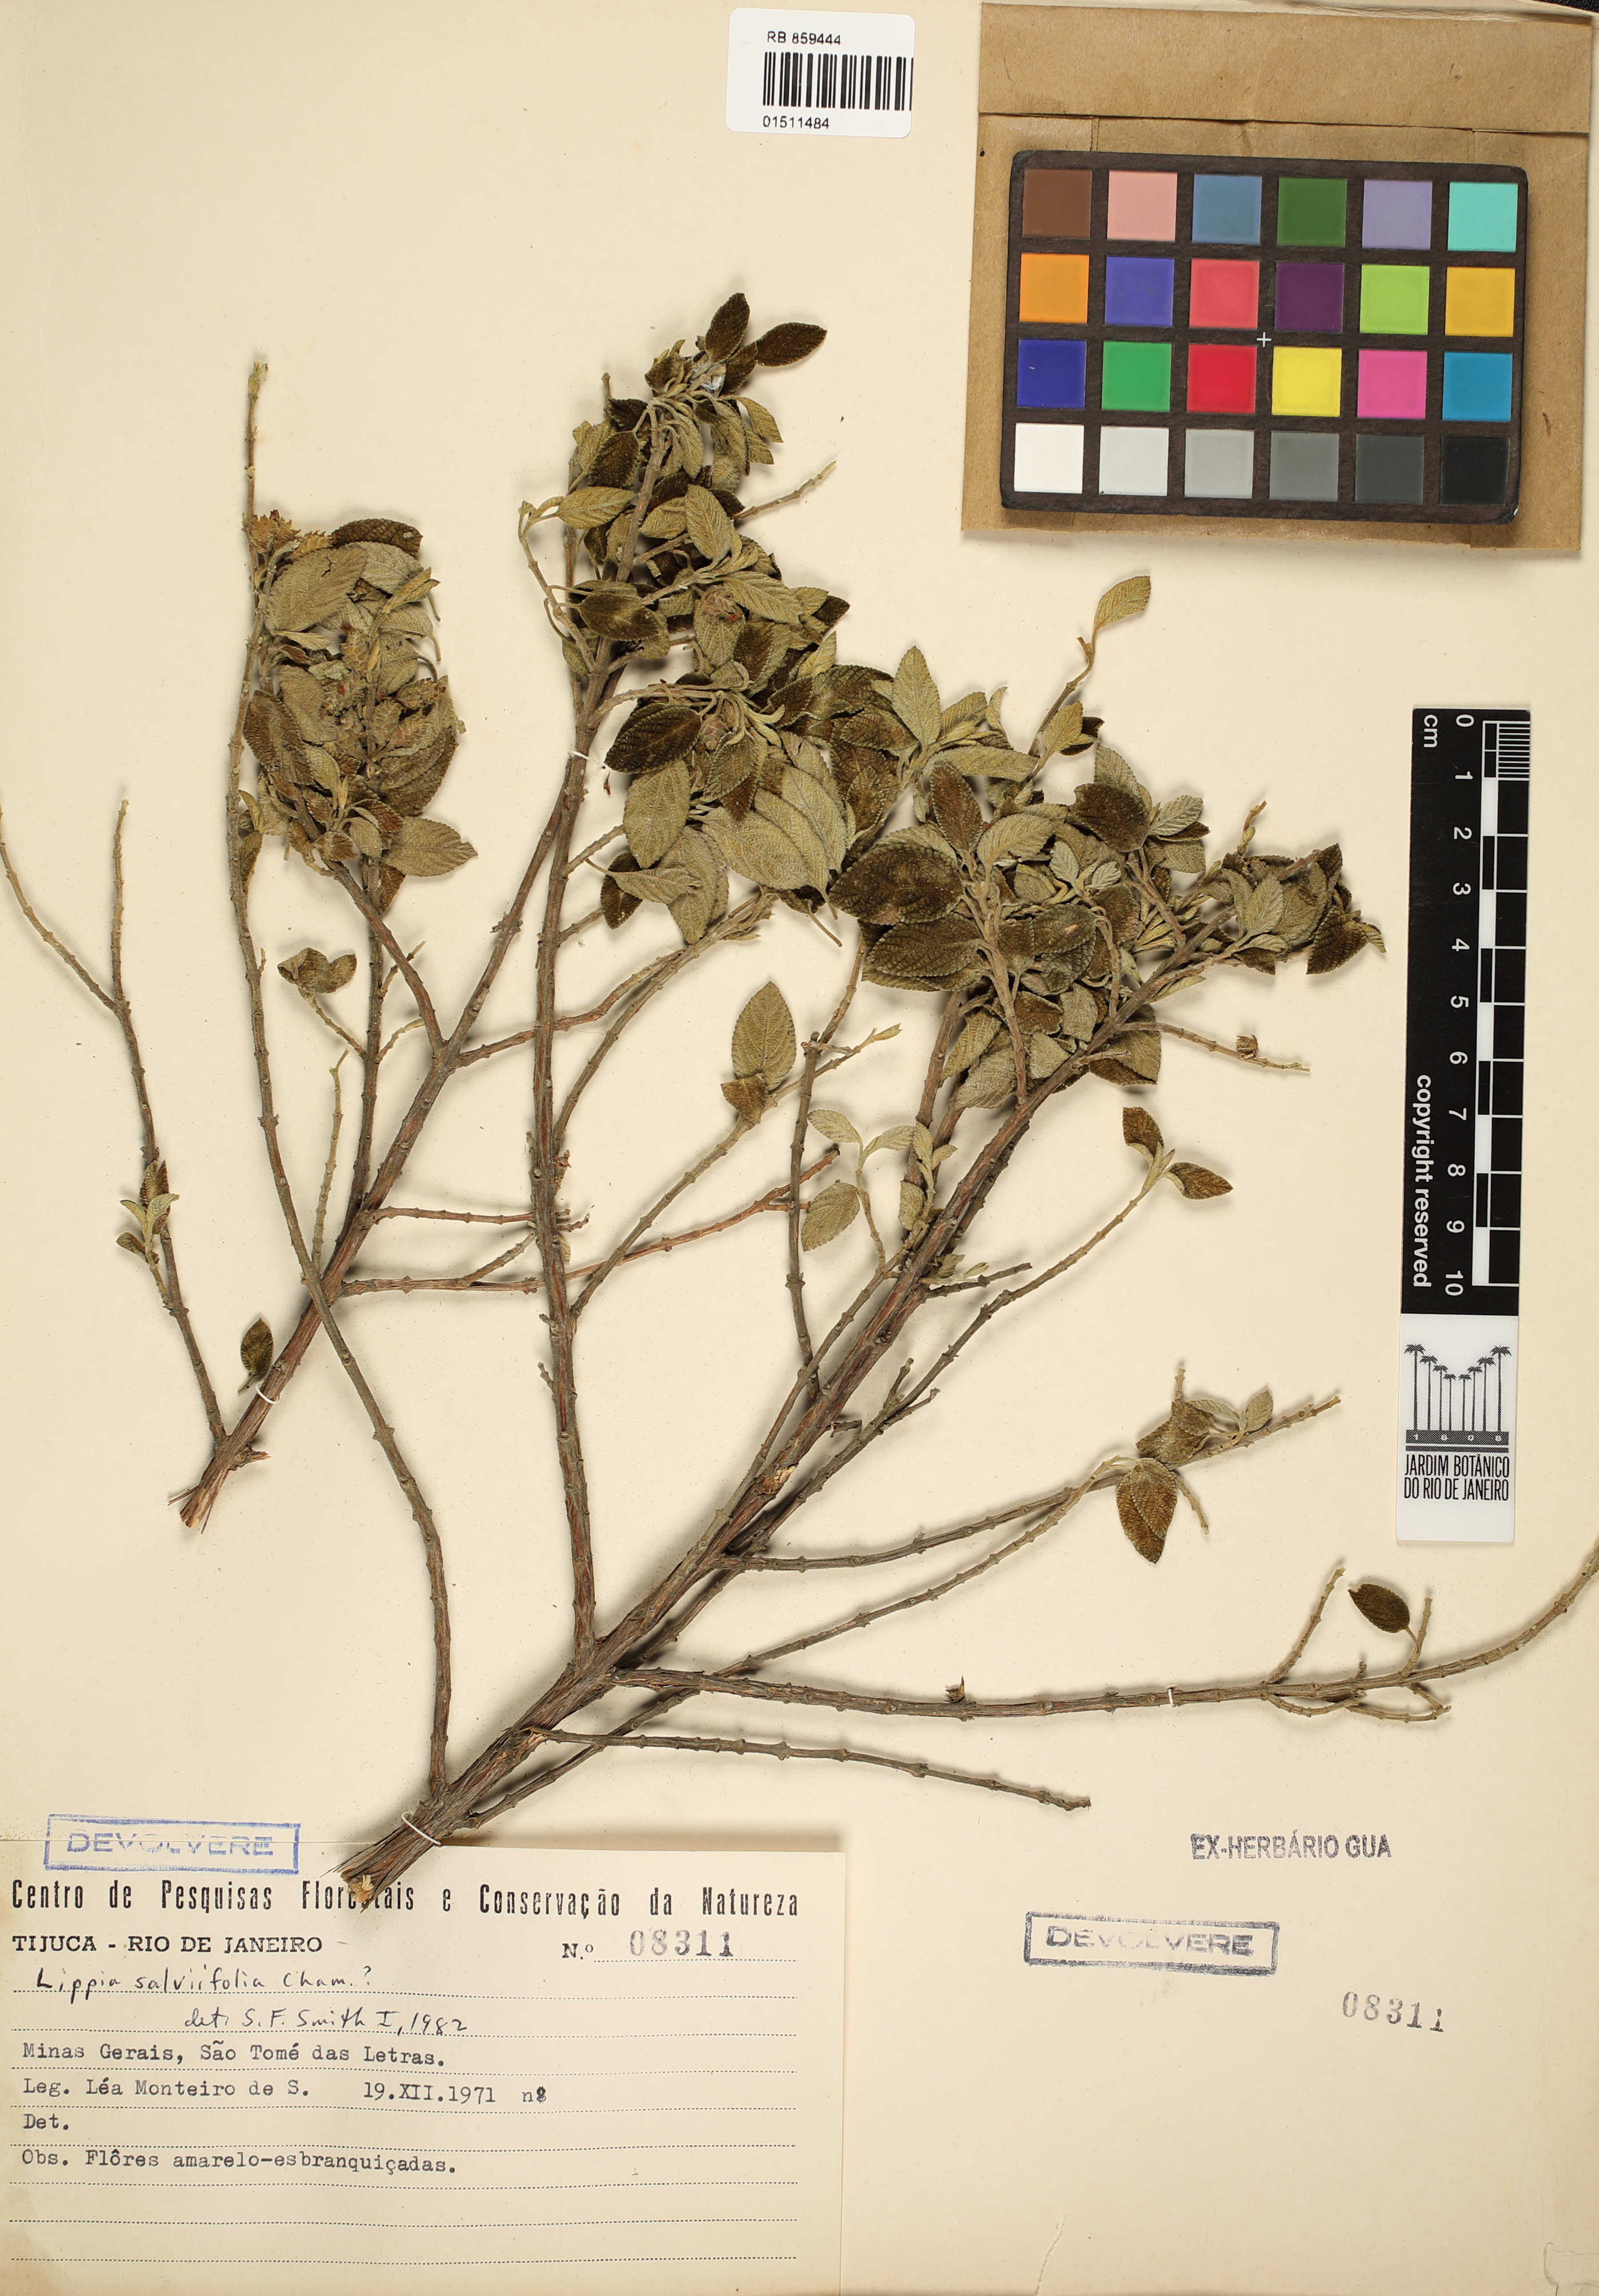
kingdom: Plantae
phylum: Tracheophyta
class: Magnoliopsida
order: Lamiales
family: Verbenaceae
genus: Lippia
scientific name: Lippia origanoides
